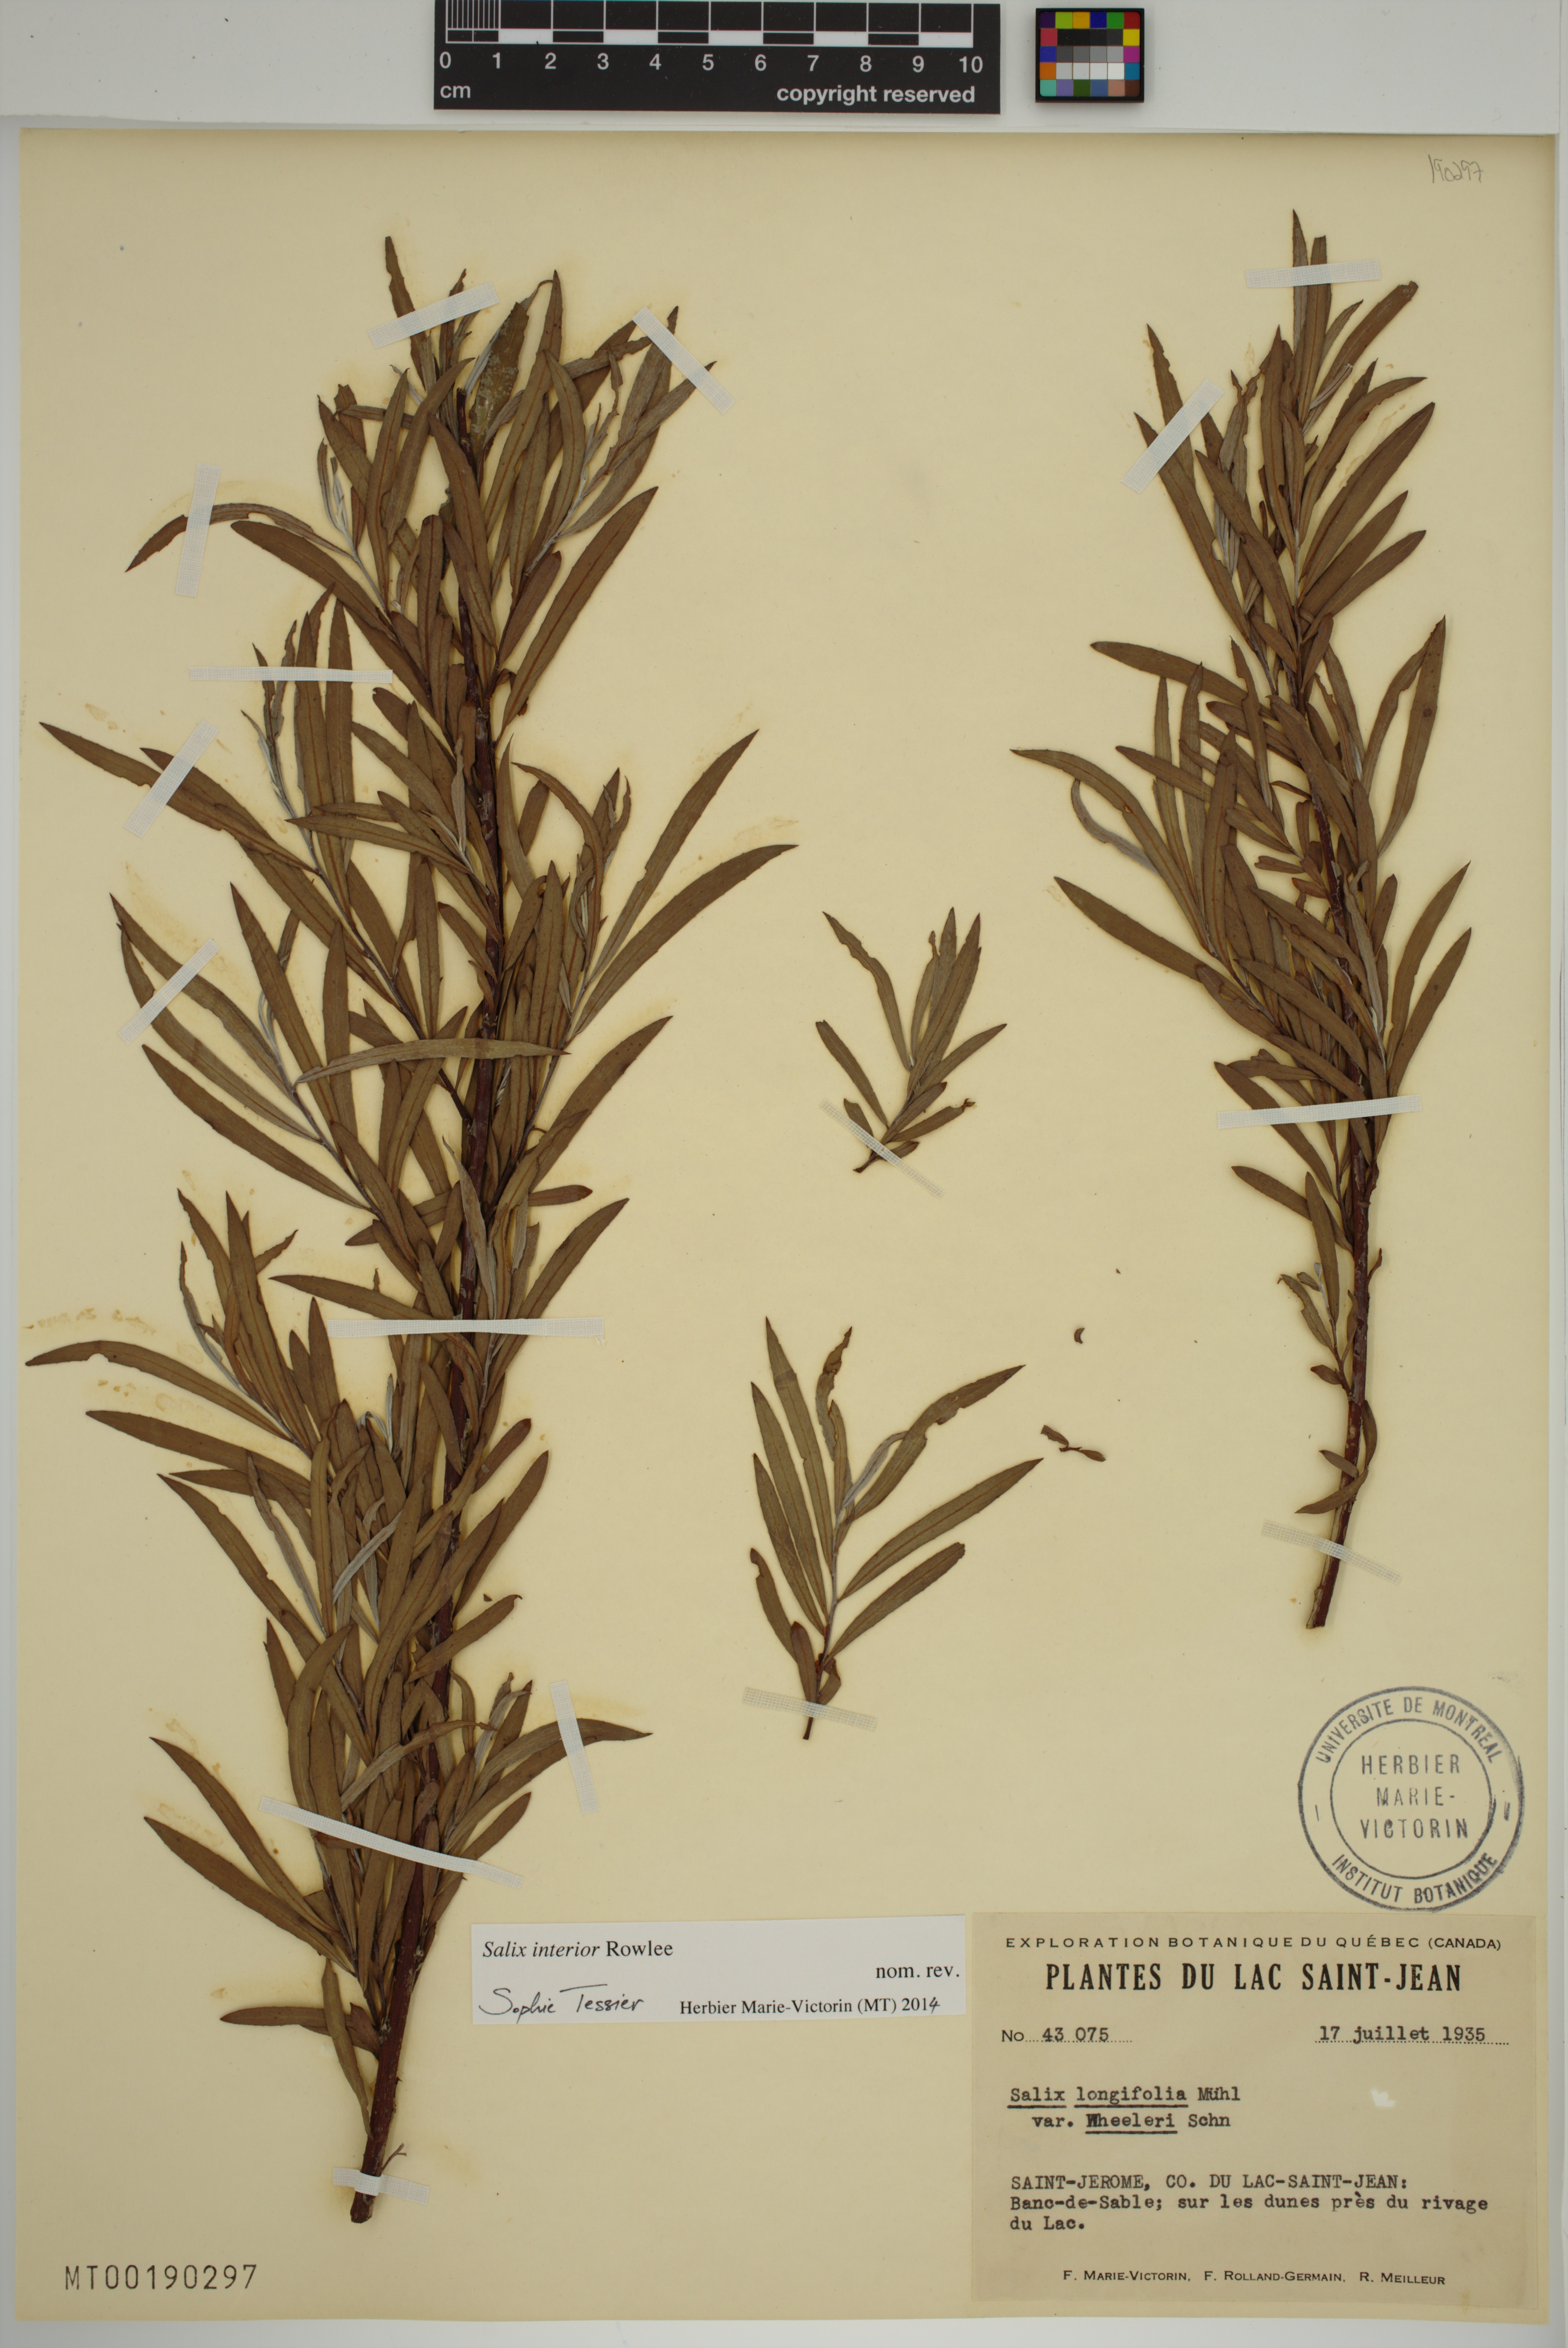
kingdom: Plantae
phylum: Tracheophyta
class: Magnoliopsida
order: Malpighiales
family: Salicaceae
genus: Salix
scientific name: Salix interior
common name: Sandbar willow
